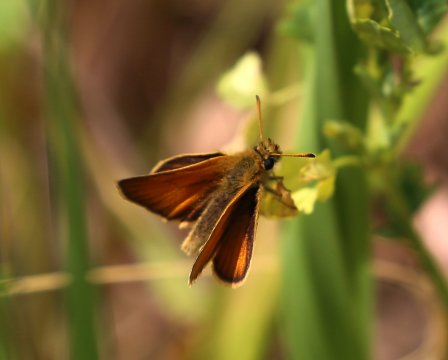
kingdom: Animalia
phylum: Arthropoda
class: Insecta
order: Lepidoptera
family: Hesperiidae
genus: Thymelicus
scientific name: Thymelicus lineola
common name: European Skipper
